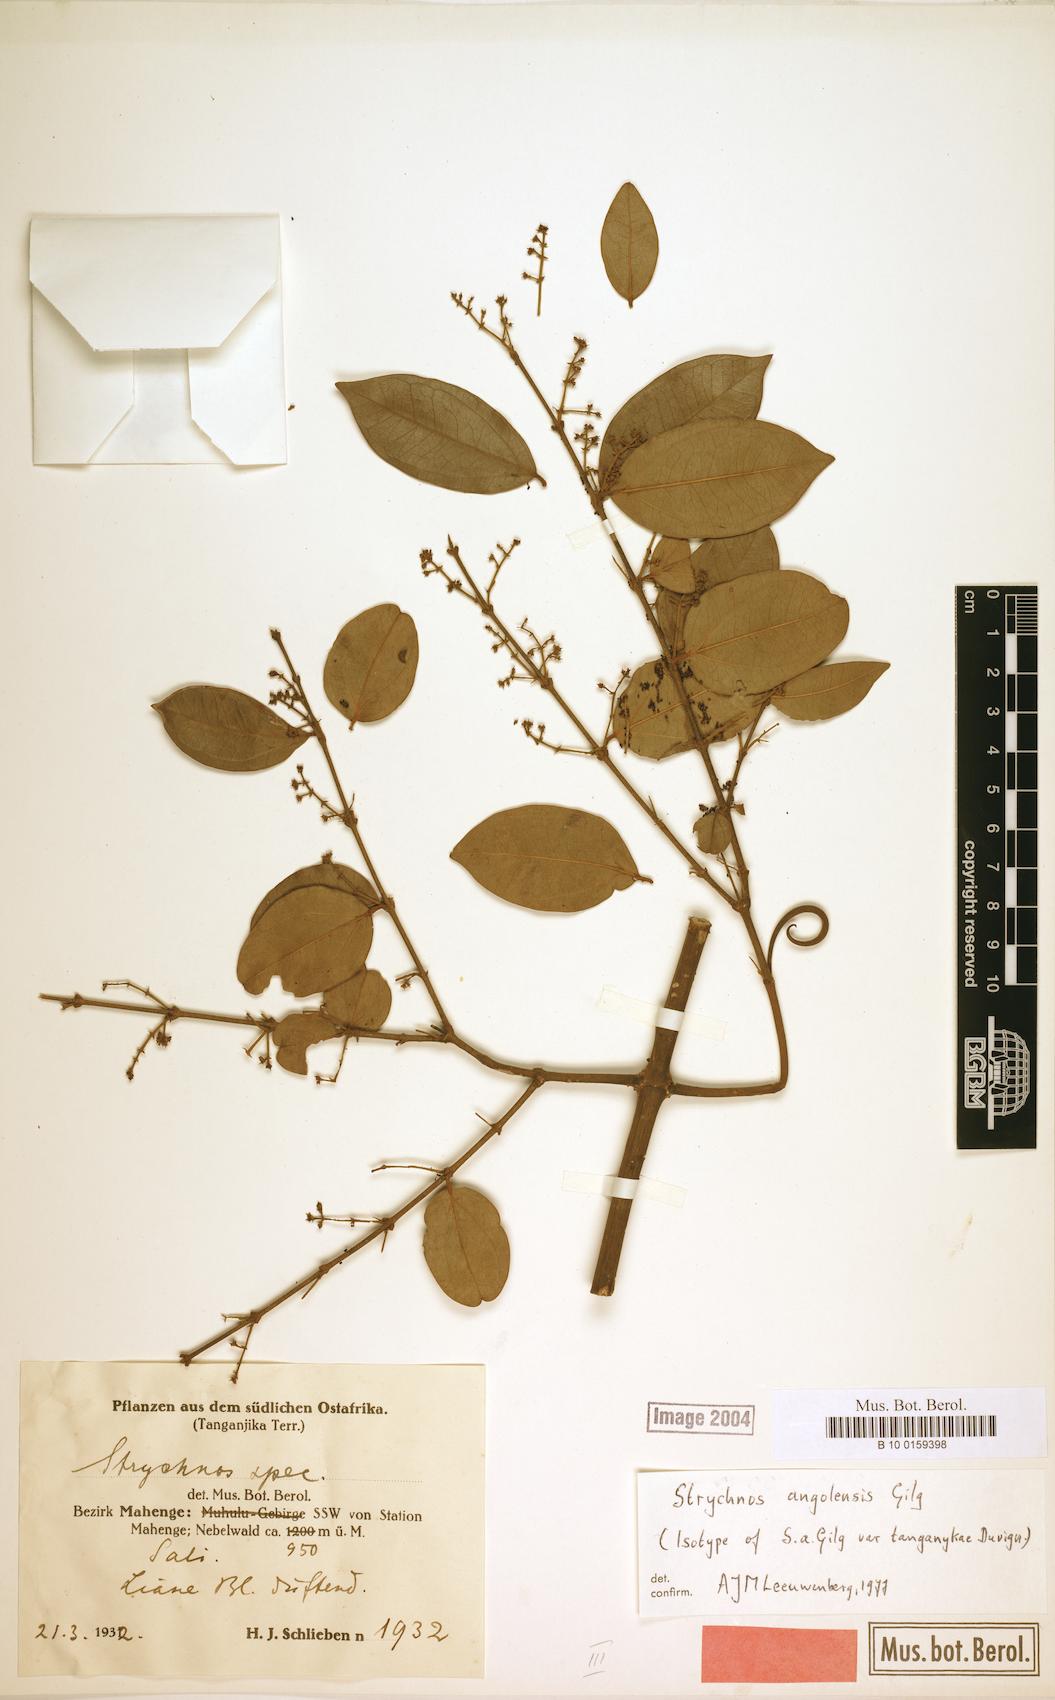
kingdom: Plantae
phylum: Tracheophyta
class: Magnoliopsida
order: Gentianales
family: Loganiaceae
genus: Strychnos
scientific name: Strychnos angolensis
